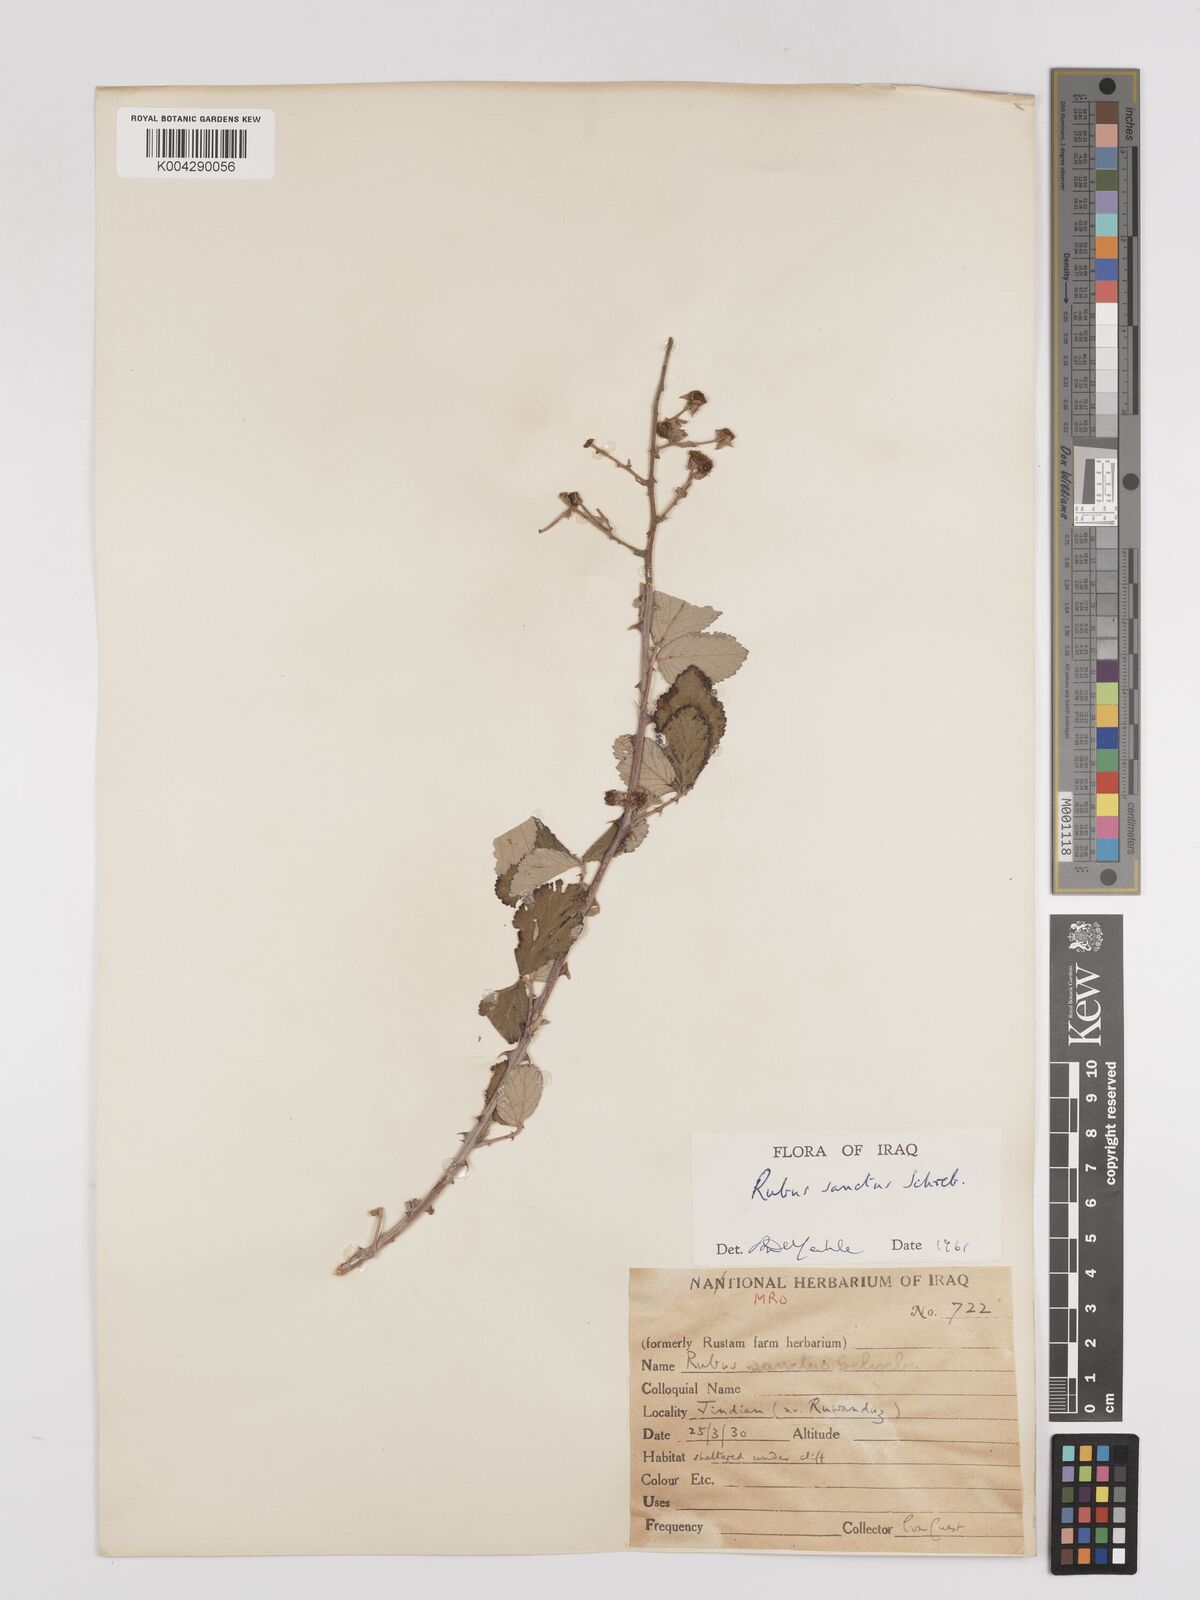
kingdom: Plantae
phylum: Tracheophyta
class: Magnoliopsida
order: Rosales
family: Rosaceae
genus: Rubus
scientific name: Rubus sanctus
